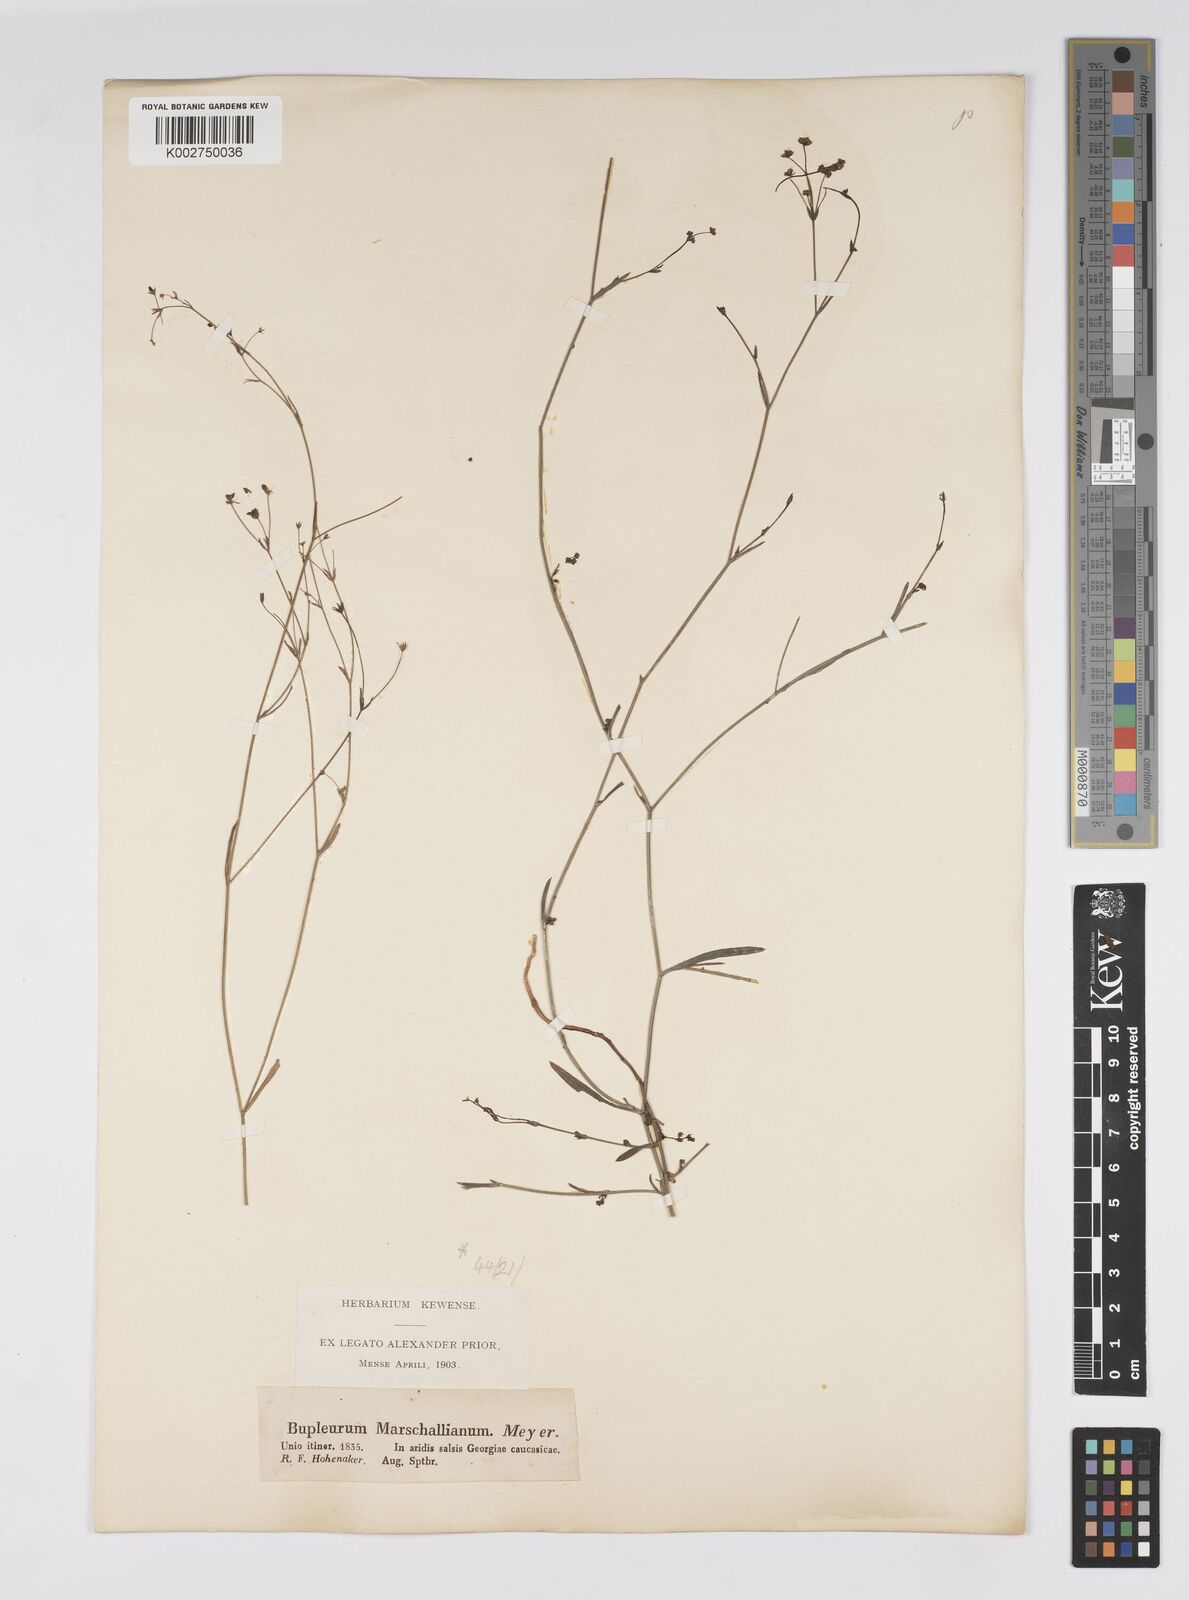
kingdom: Plantae
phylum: Tracheophyta
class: Magnoliopsida
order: Apiales
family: Apiaceae
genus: Bupleurum
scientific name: Bupleurum marschallianum
